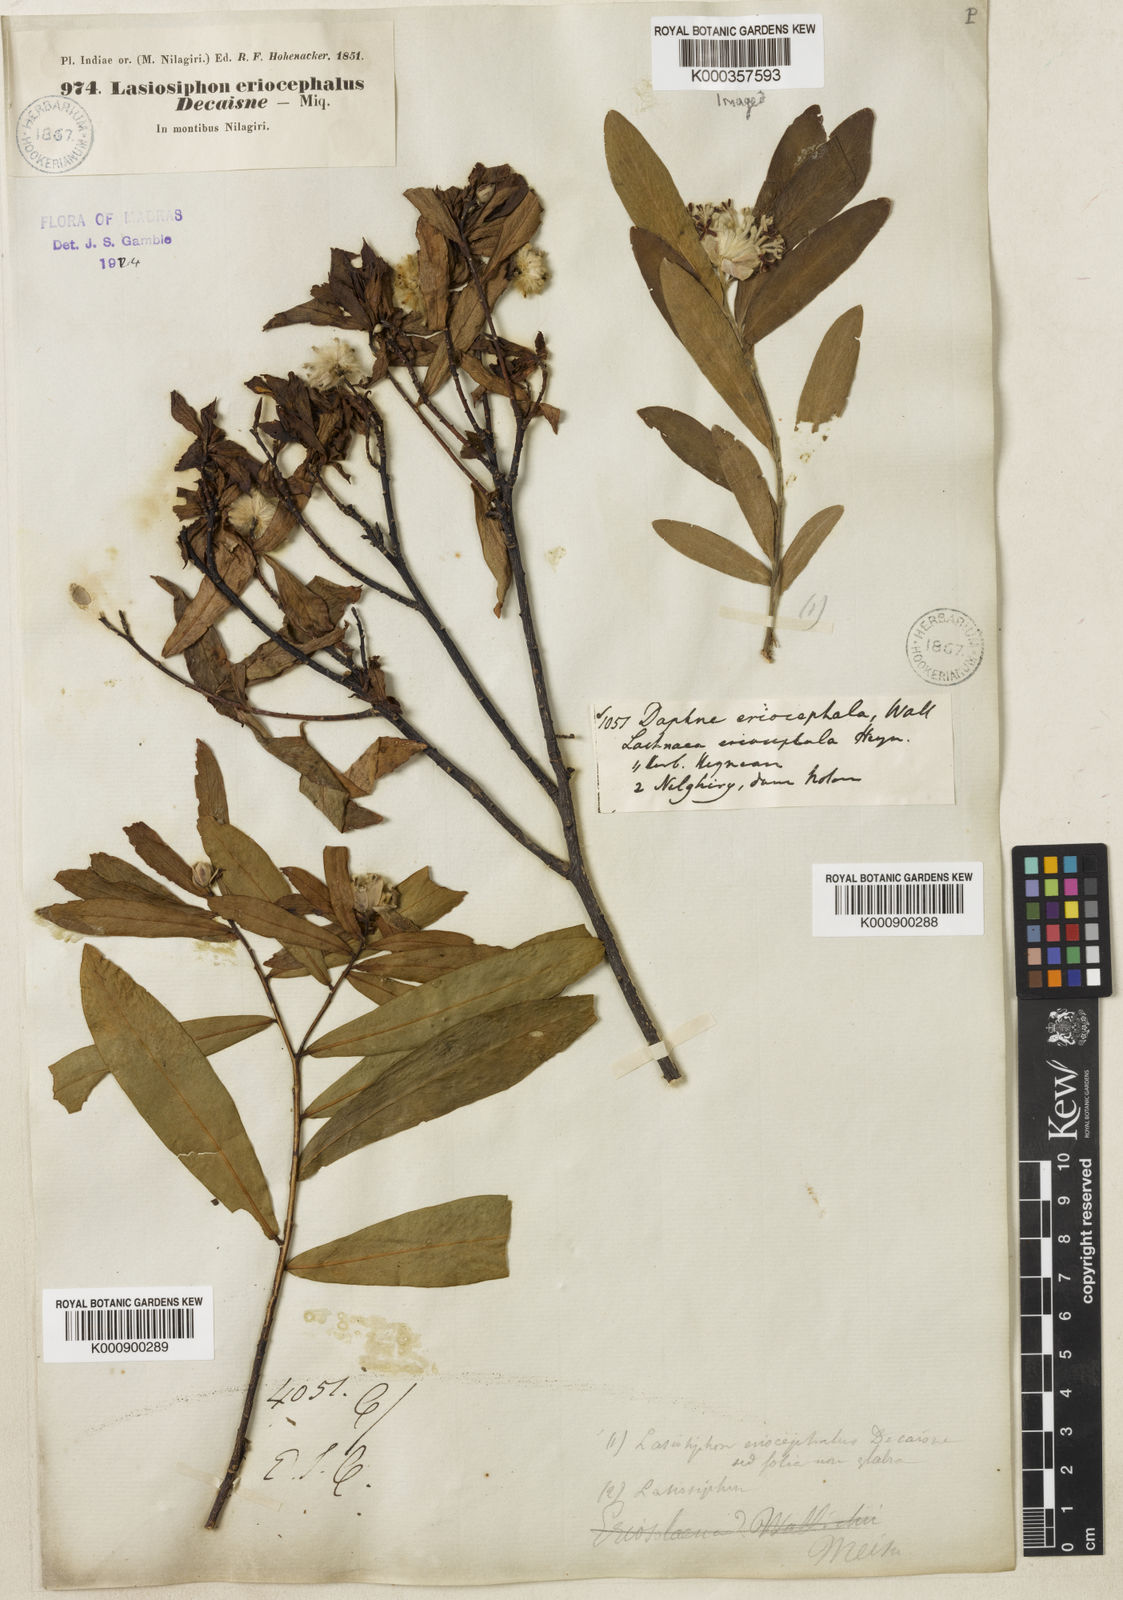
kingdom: Plantae
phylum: Tracheophyta
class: Magnoliopsida
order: Malvales
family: Thymelaeaceae
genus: Gnidia
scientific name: Gnidia glauca
